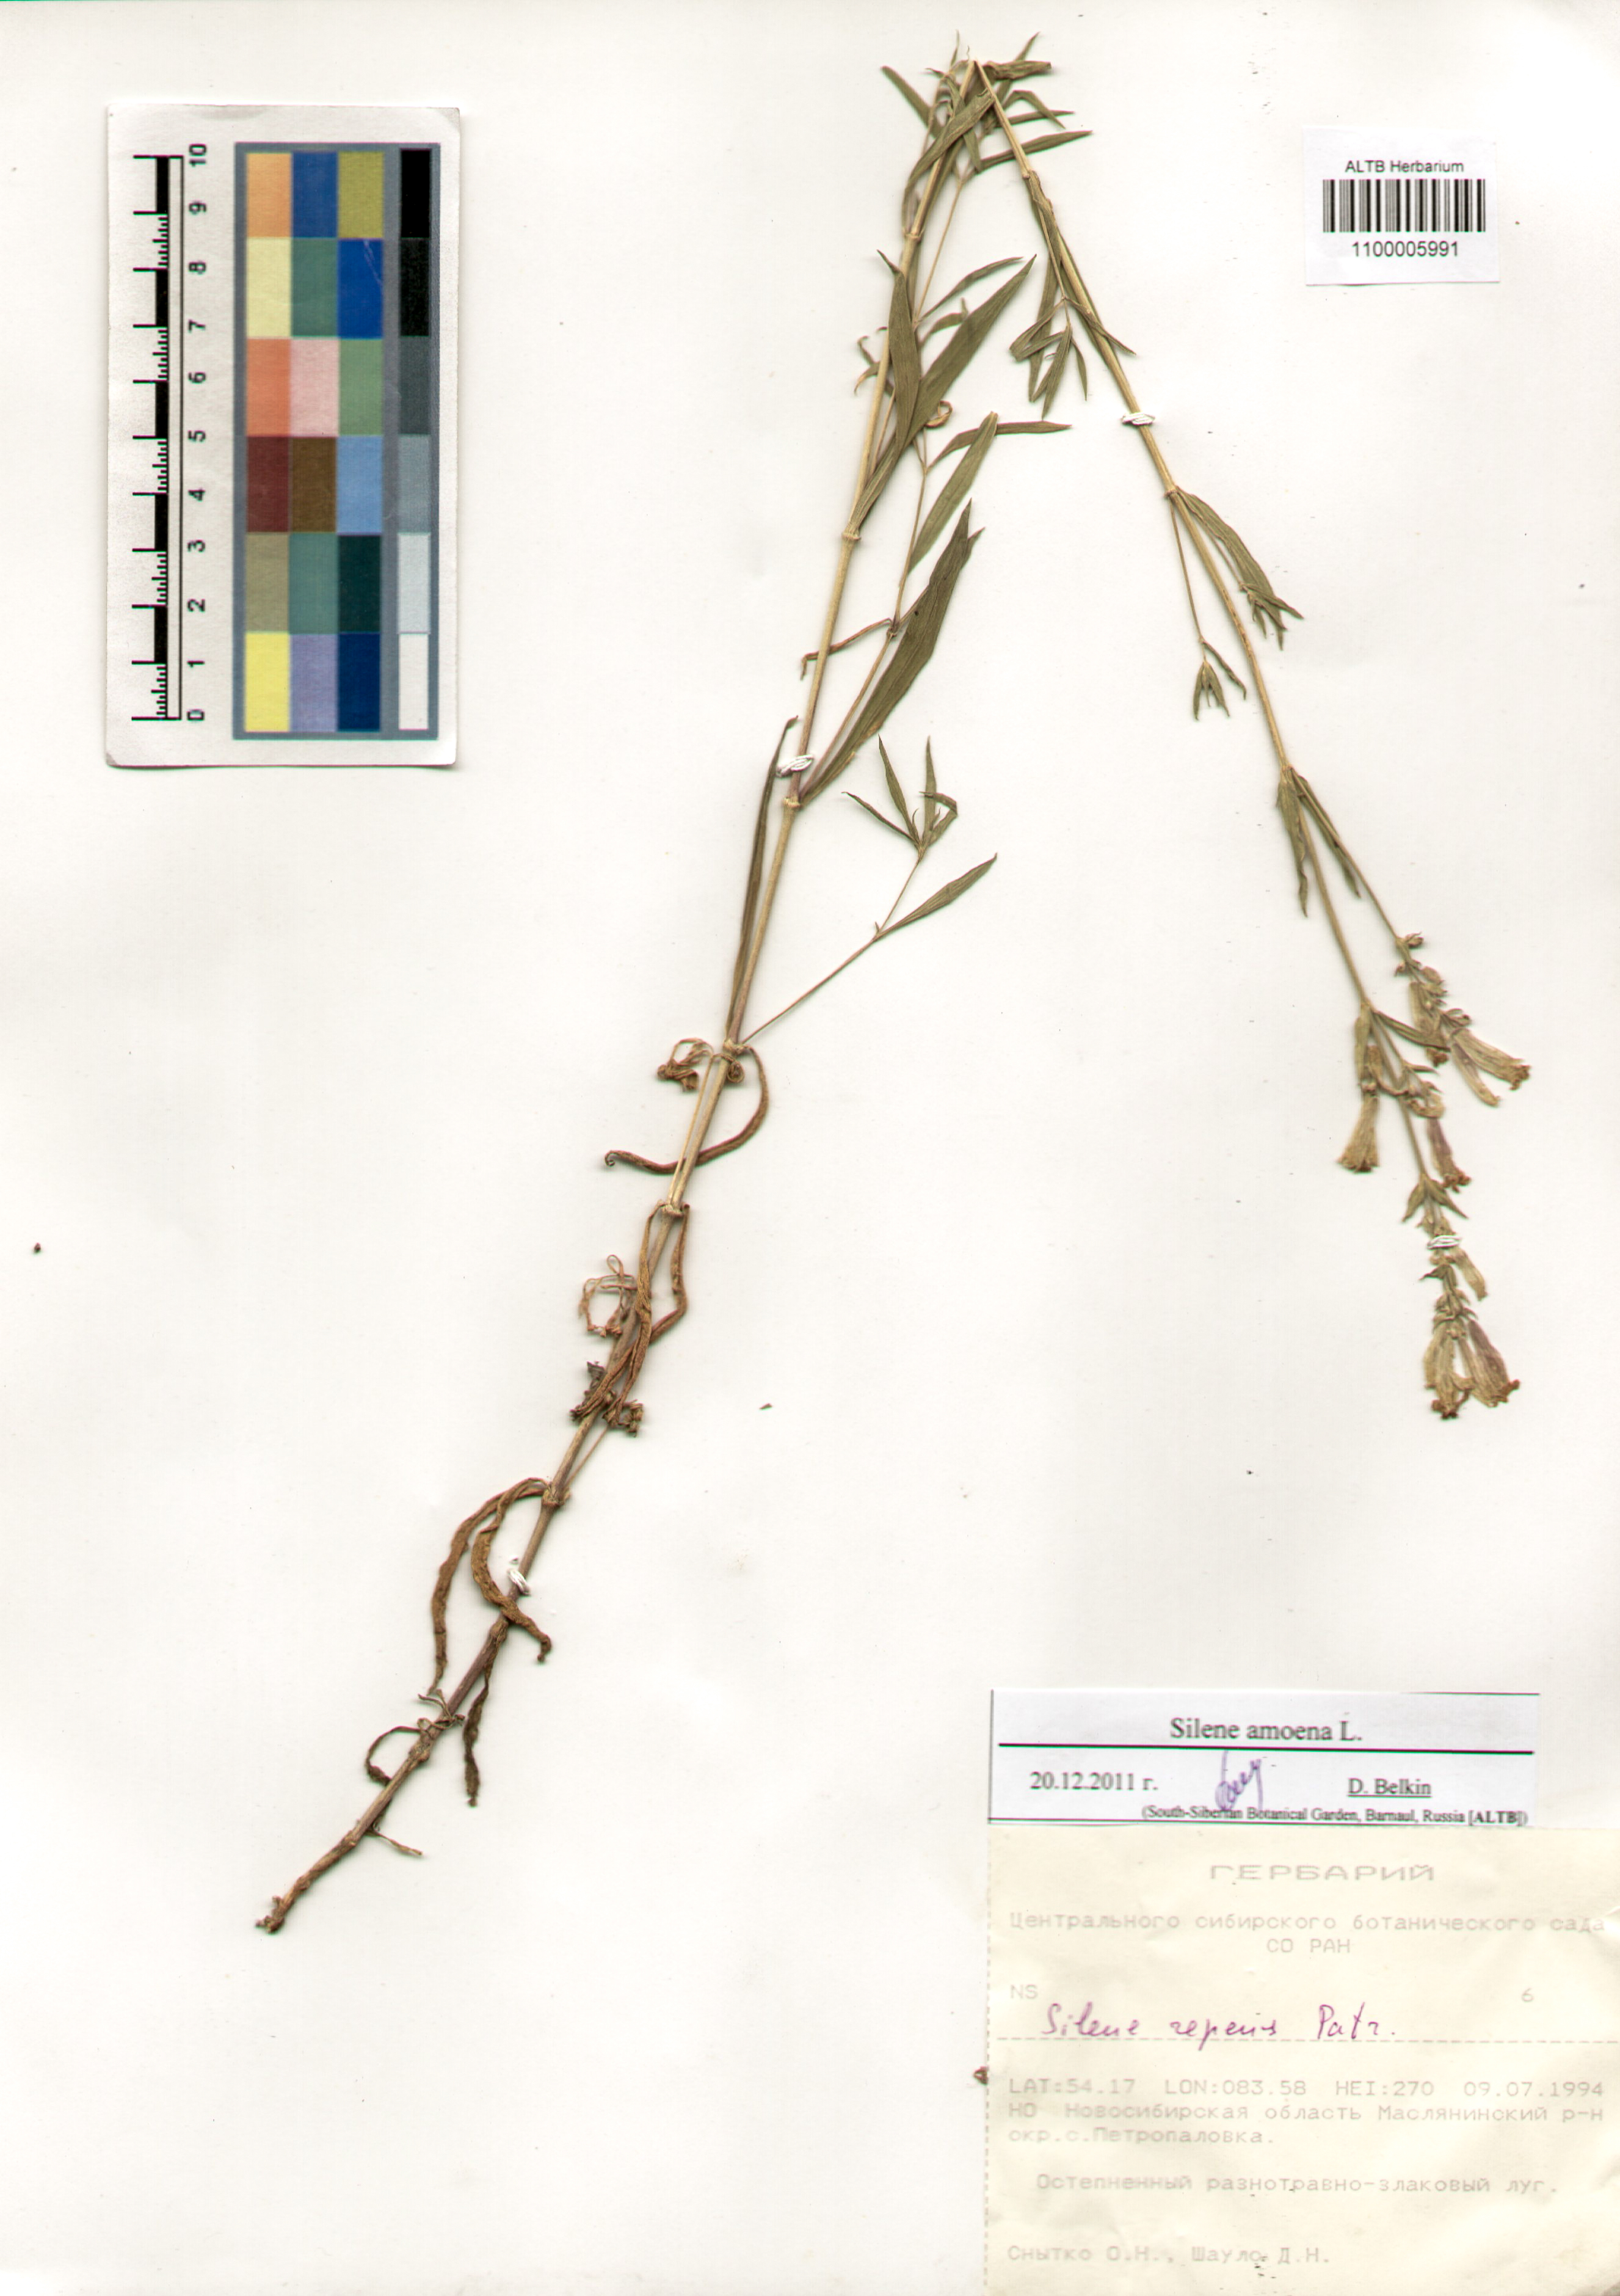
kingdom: Plantae
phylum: Tracheophyta
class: Magnoliopsida
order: Caryophyllales
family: Caryophyllaceae
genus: Silene
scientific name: Silene amoena
